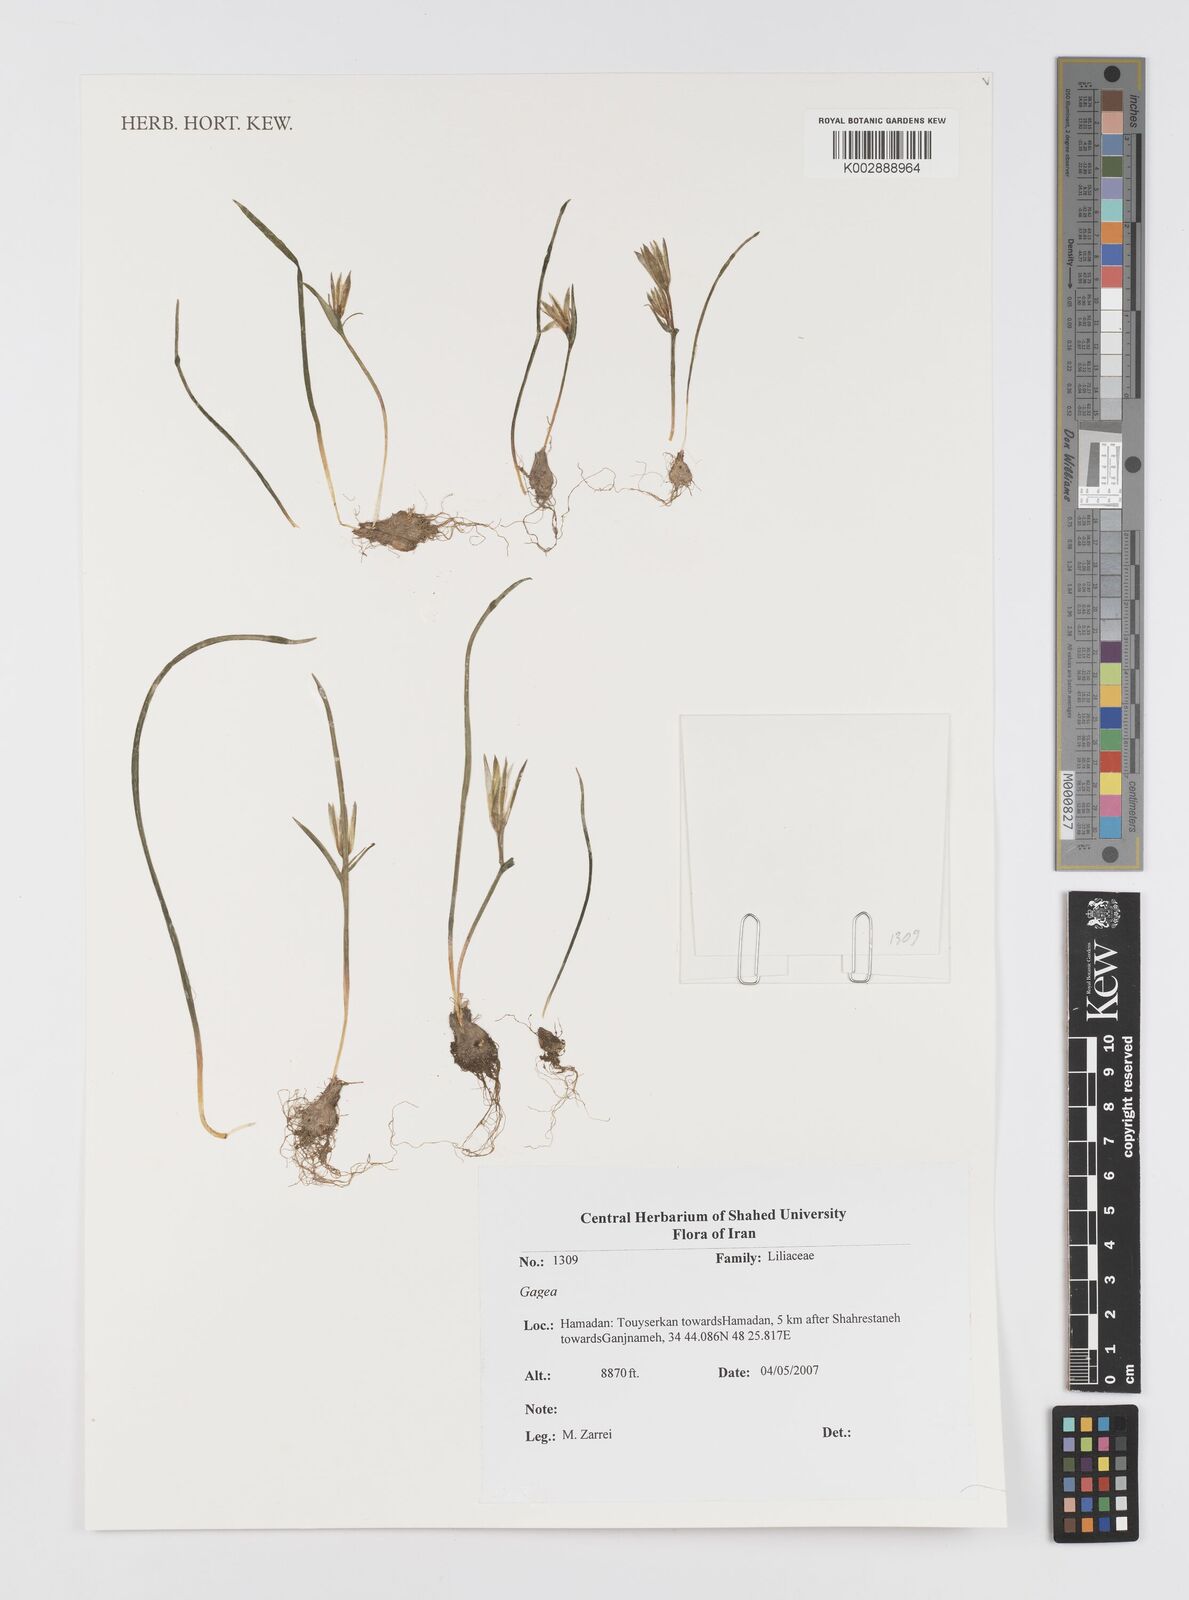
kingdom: Plantae
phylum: Tracheophyta
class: Liliopsida
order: Liliales
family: Liliaceae
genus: Gagea
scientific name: Gagea
